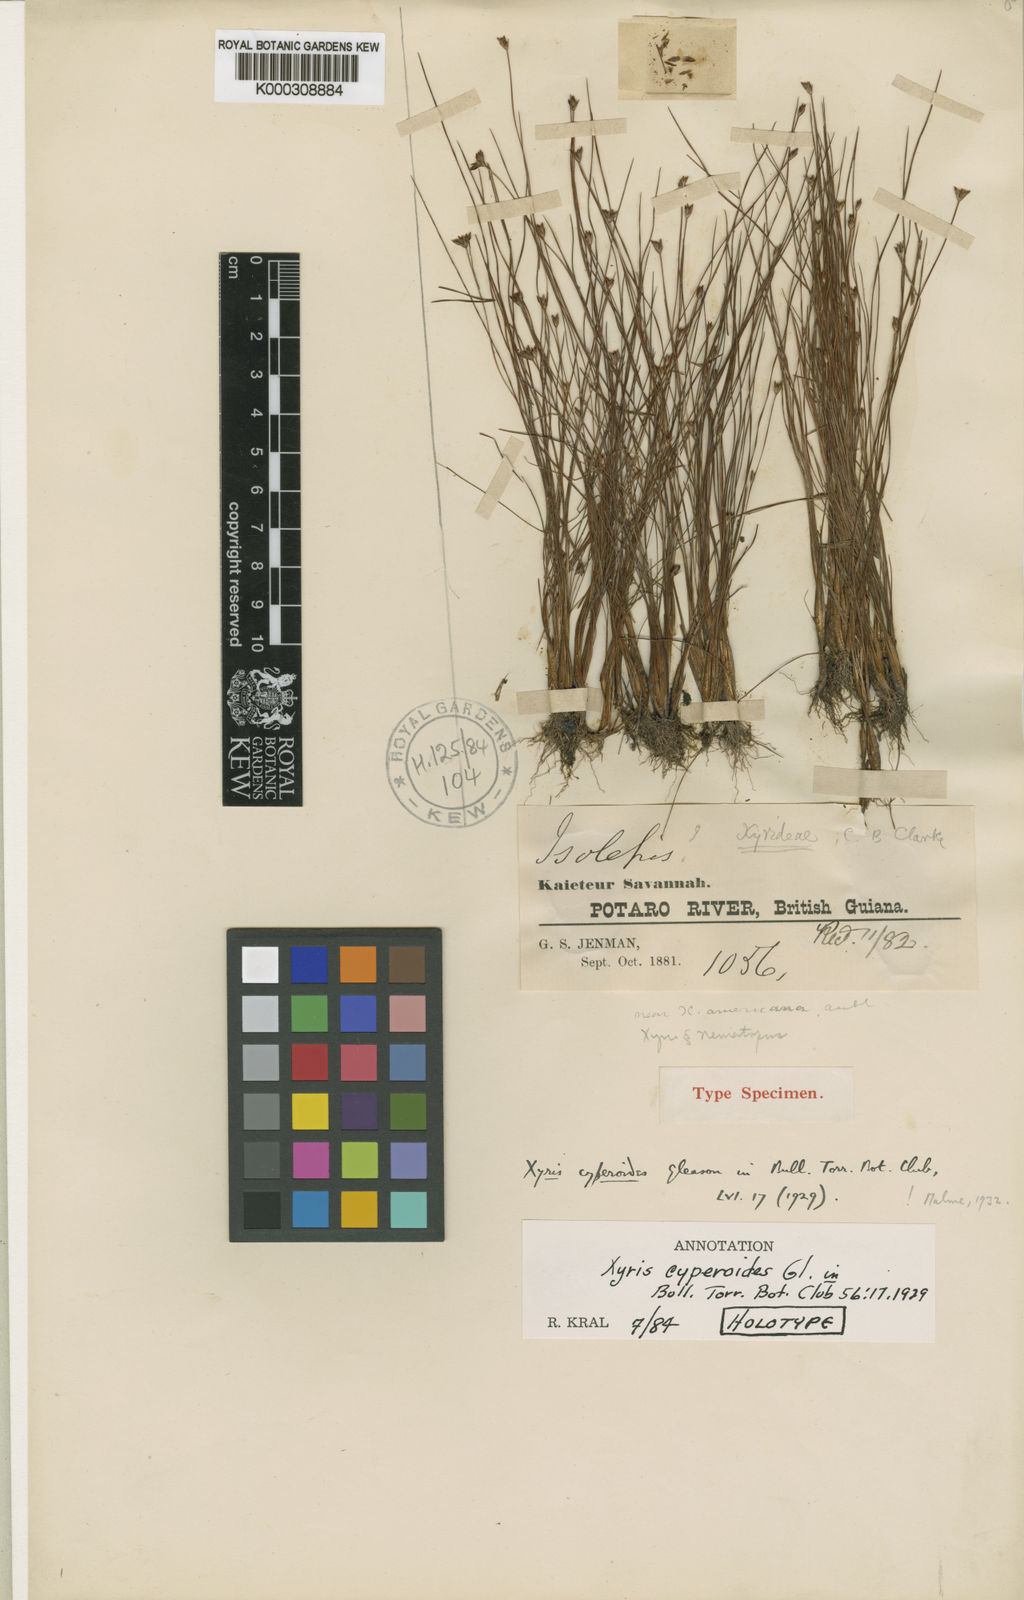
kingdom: Plantae
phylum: Tracheophyta
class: Liliopsida
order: Poales
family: Xyridaceae
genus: Xyris
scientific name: Xyris cyperoides
